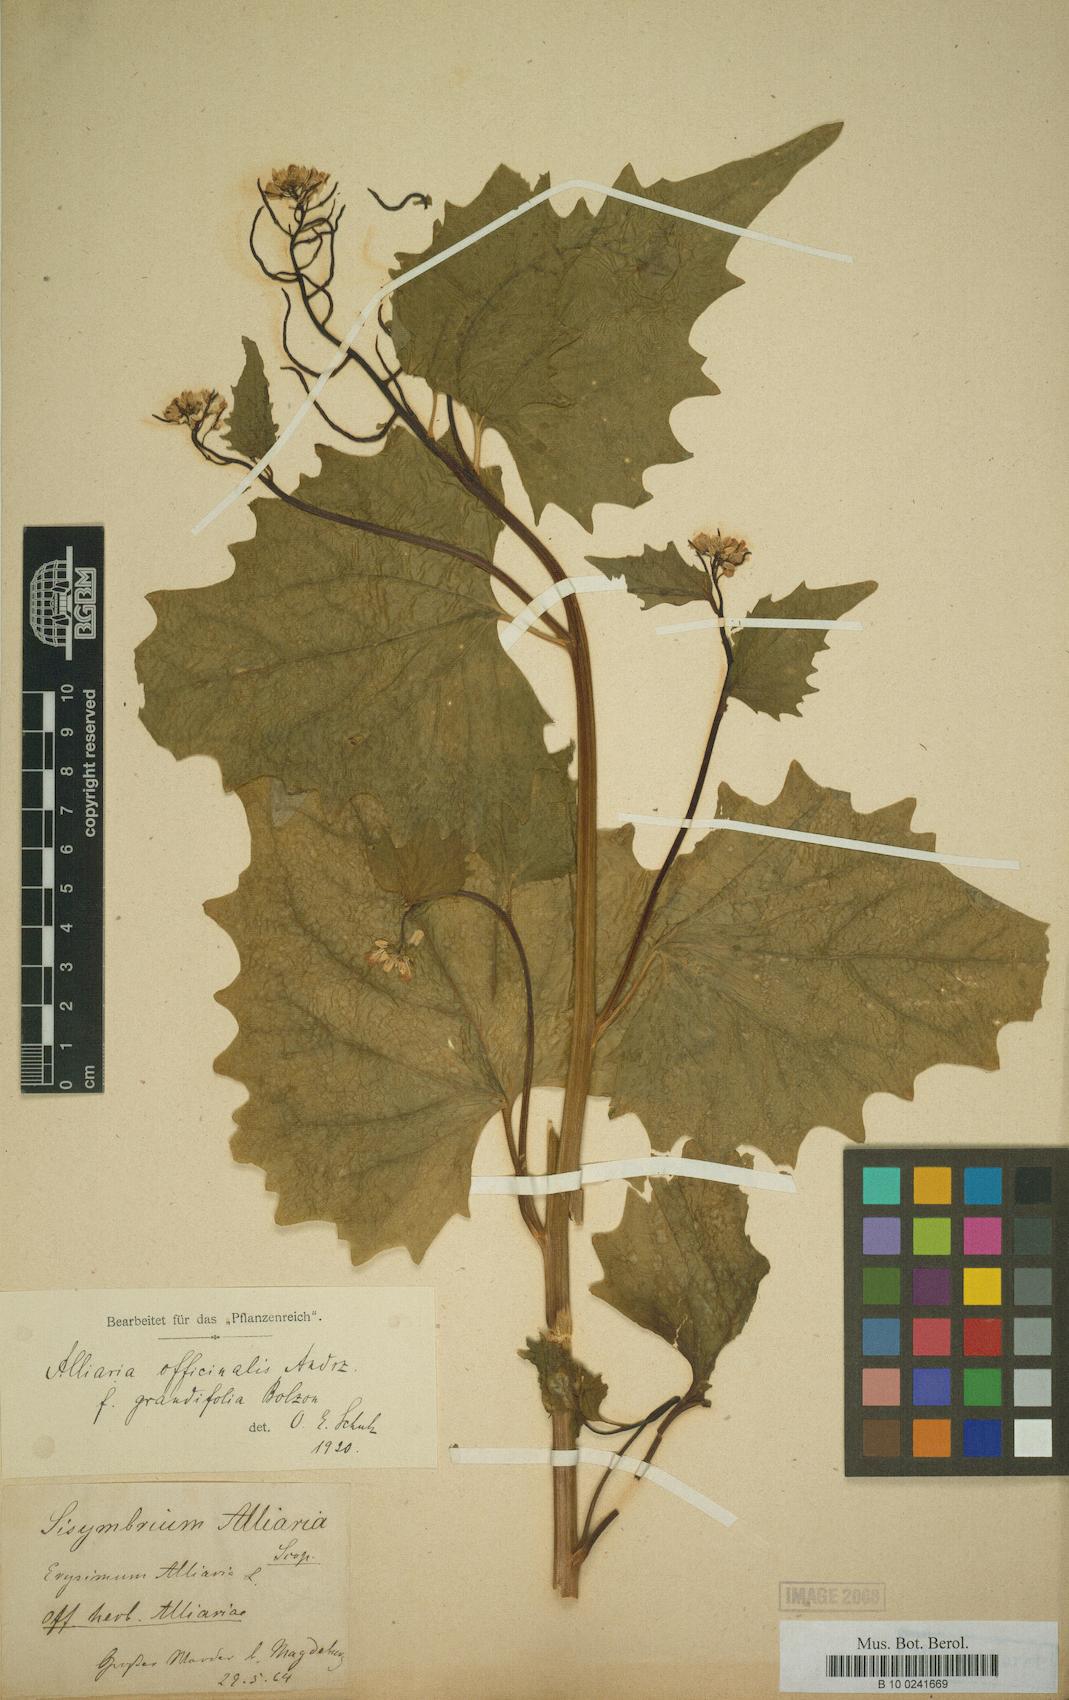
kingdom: Plantae
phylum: Tracheophyta
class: Magnoliopsida
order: Brassicales
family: Brassicaceae
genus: Alliaria
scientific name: Alliaria petiolata
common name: Garlic mustard
